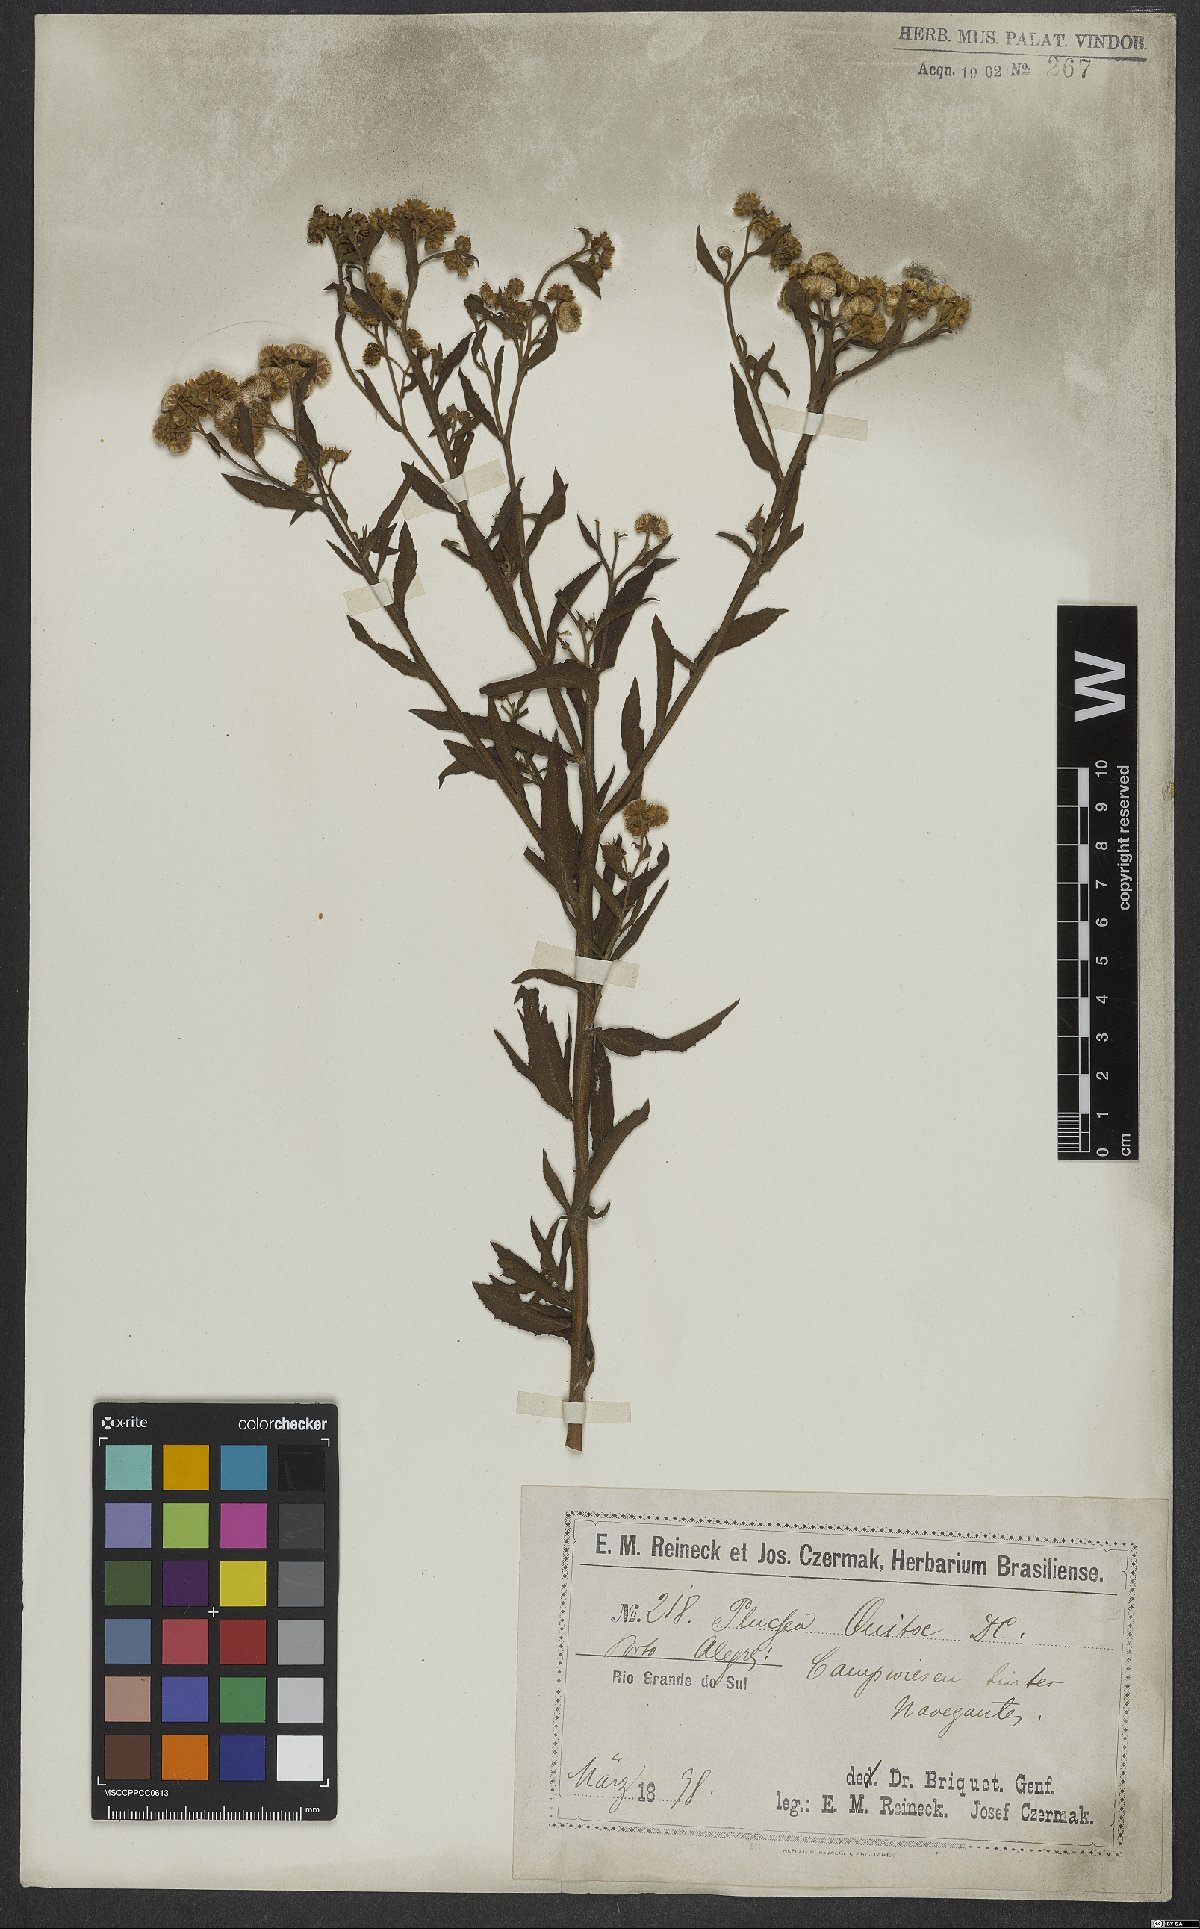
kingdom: Plantae
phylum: Tracheophyta
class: Magnoliopsida
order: Asterales
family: Asteraceae
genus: Pluchea
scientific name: Pluchea sagittalis
